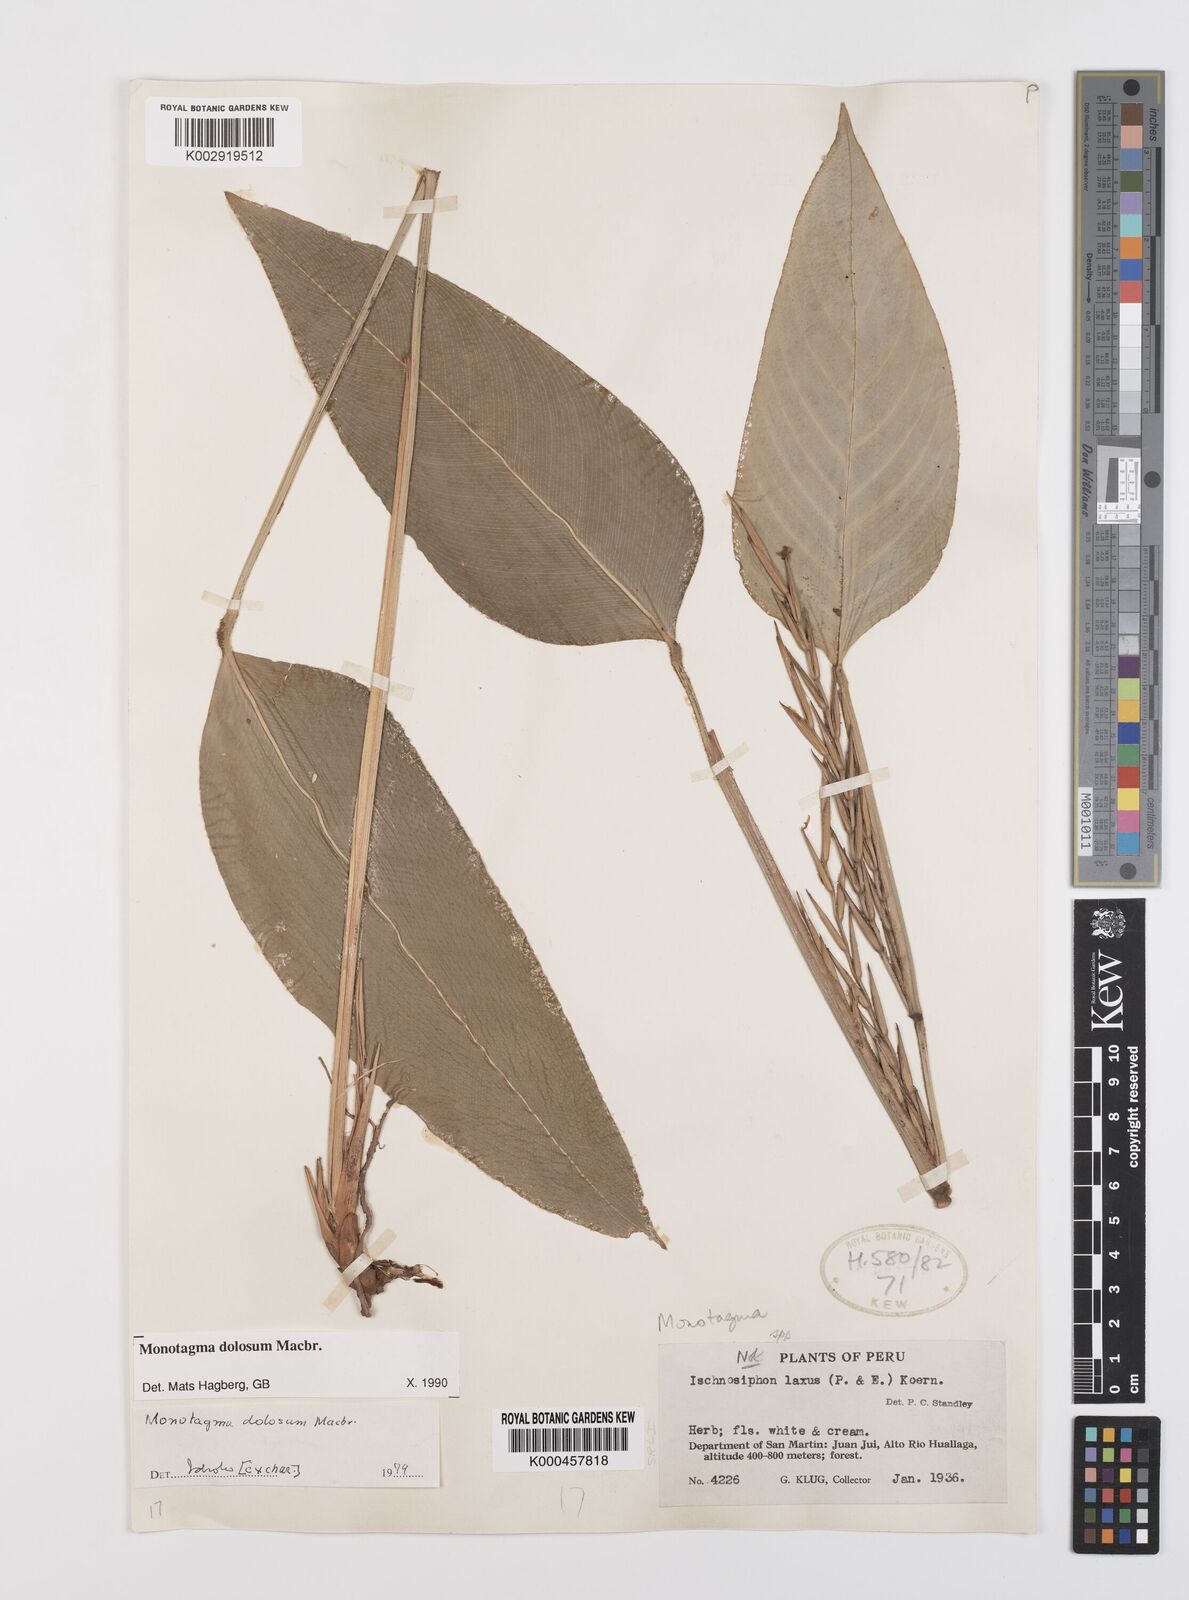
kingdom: Plantae
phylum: Tracheophyta
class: Liliopsida
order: Zingiberales
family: Marantaceae
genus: Monotagma
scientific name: Monotagma dolosum
